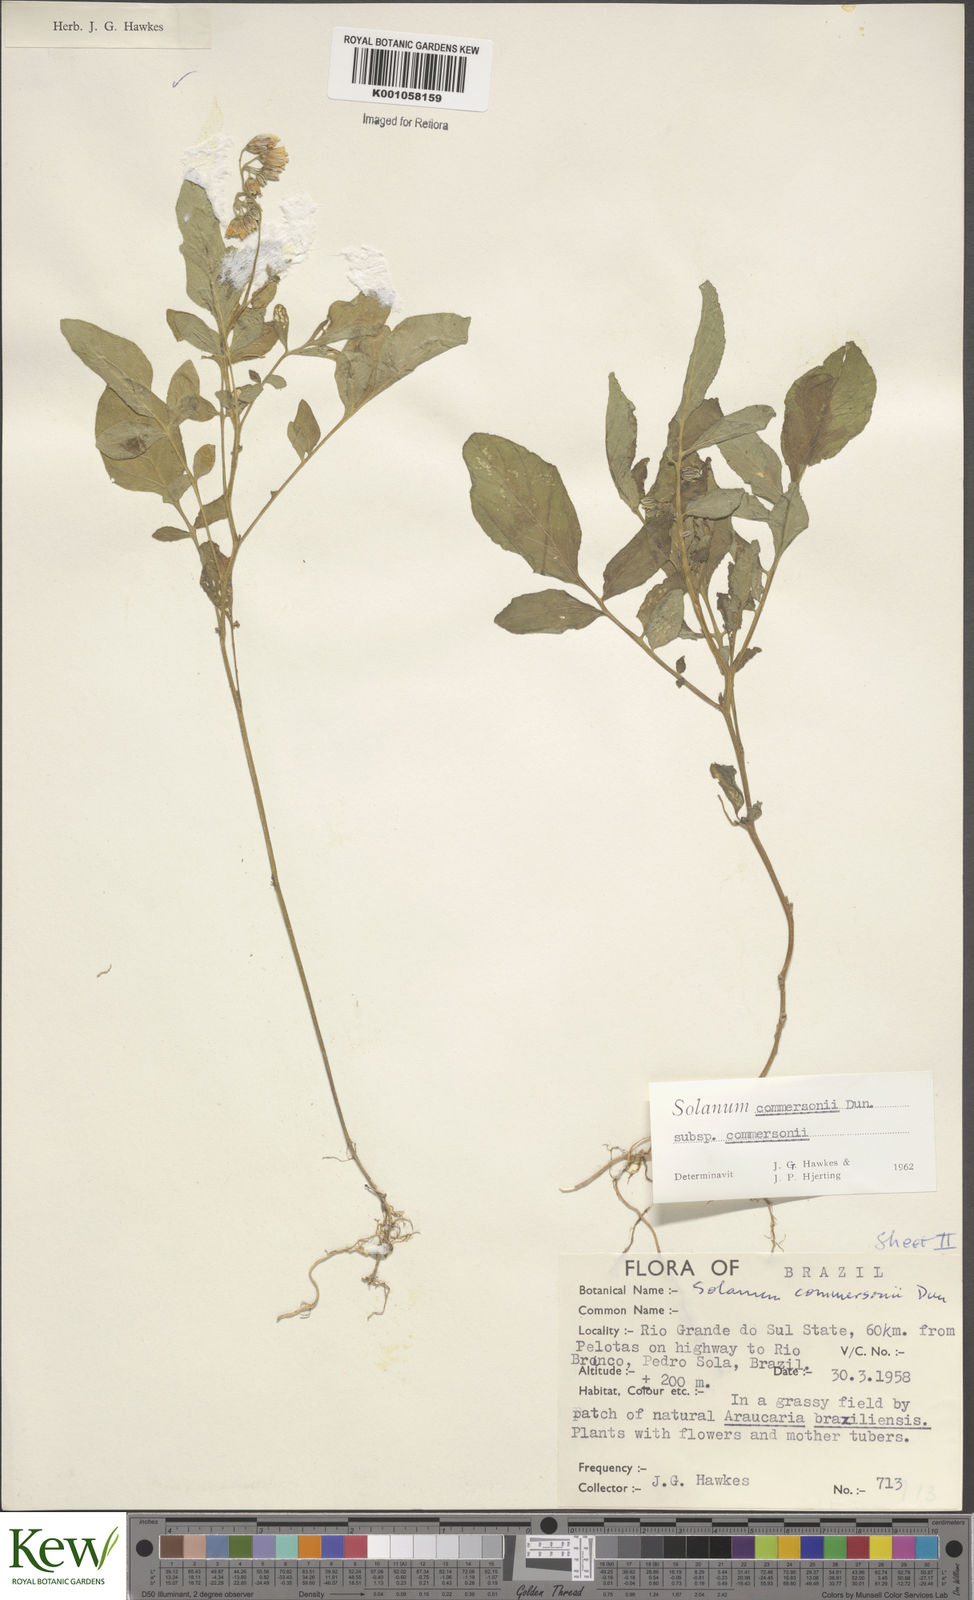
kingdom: Plantae
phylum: Tracheophyta
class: Magnoliopsida
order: Solanales
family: Solanaceae
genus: Solanum
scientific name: Solanum
